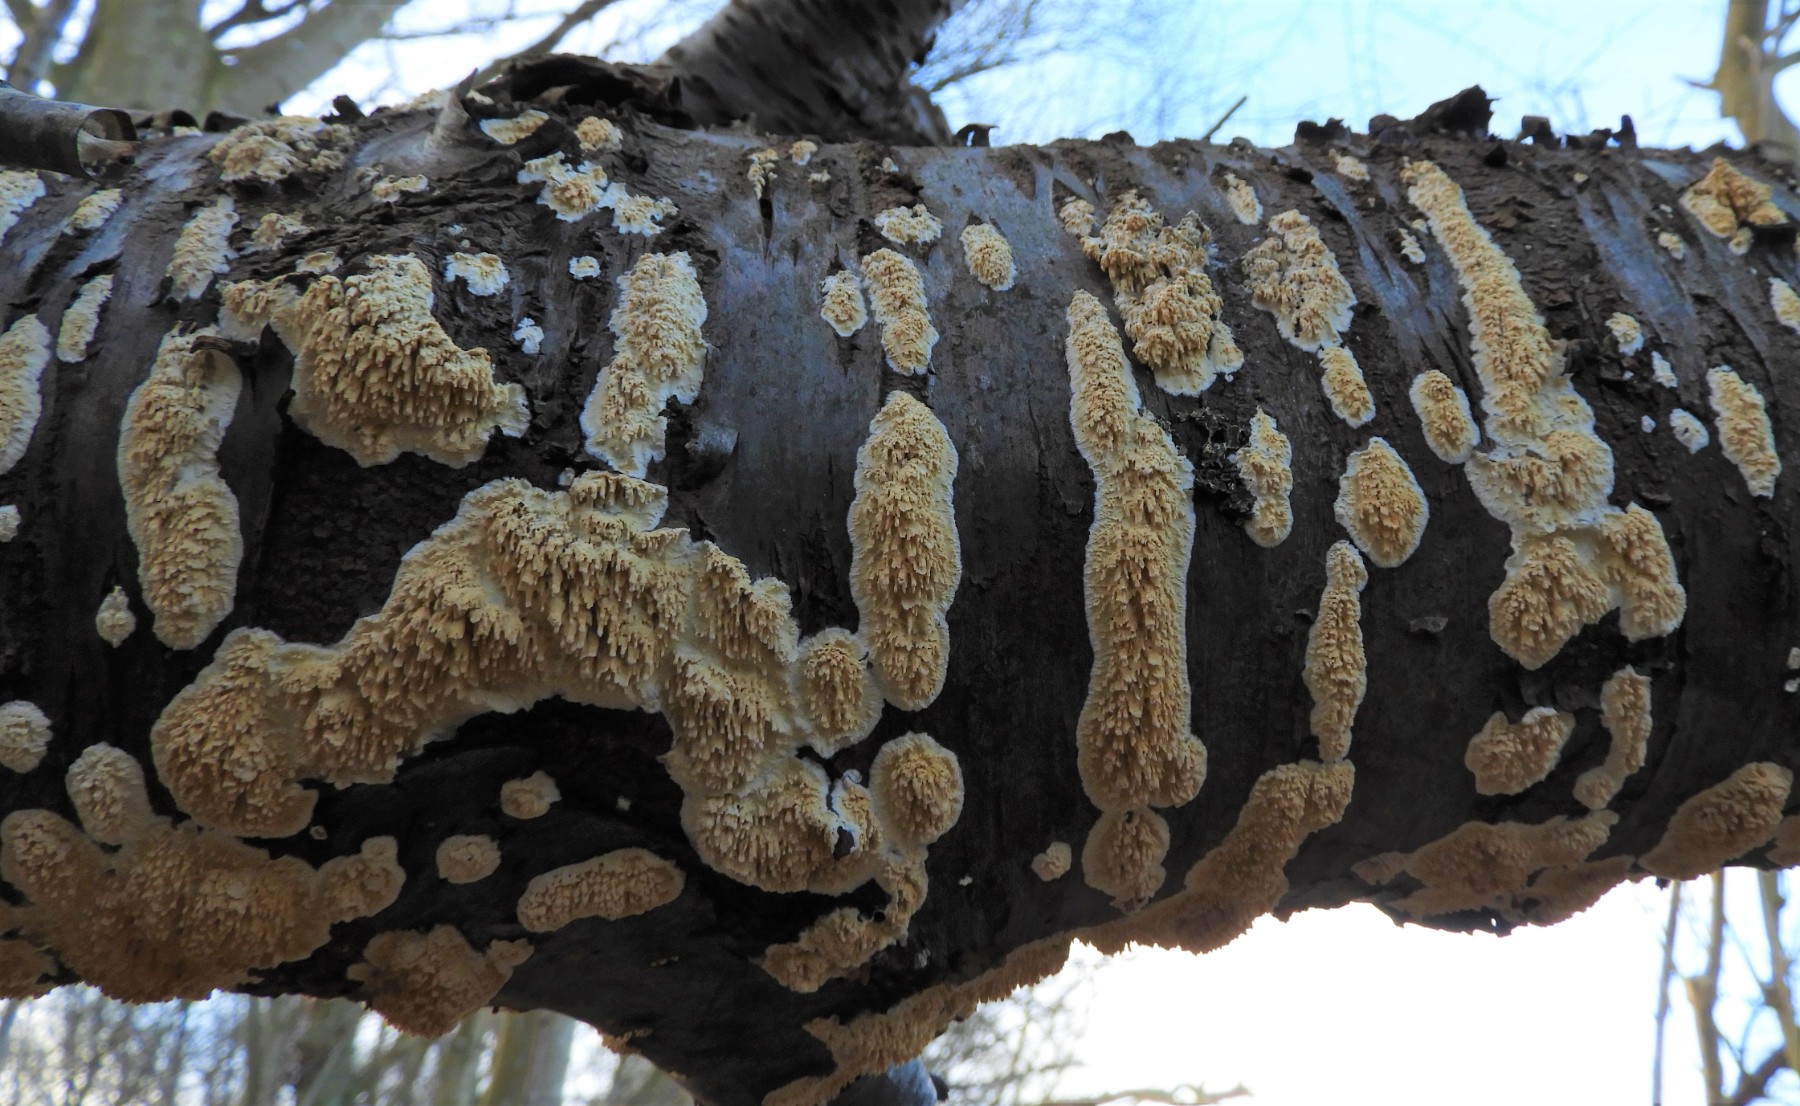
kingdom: Fungi
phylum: Basidiomycota
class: Agaricomycetes
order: Hymenochaetales
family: Schizoporaceae
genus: Xylodon
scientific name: Xylodon radula
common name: grovtandet kalkskind
